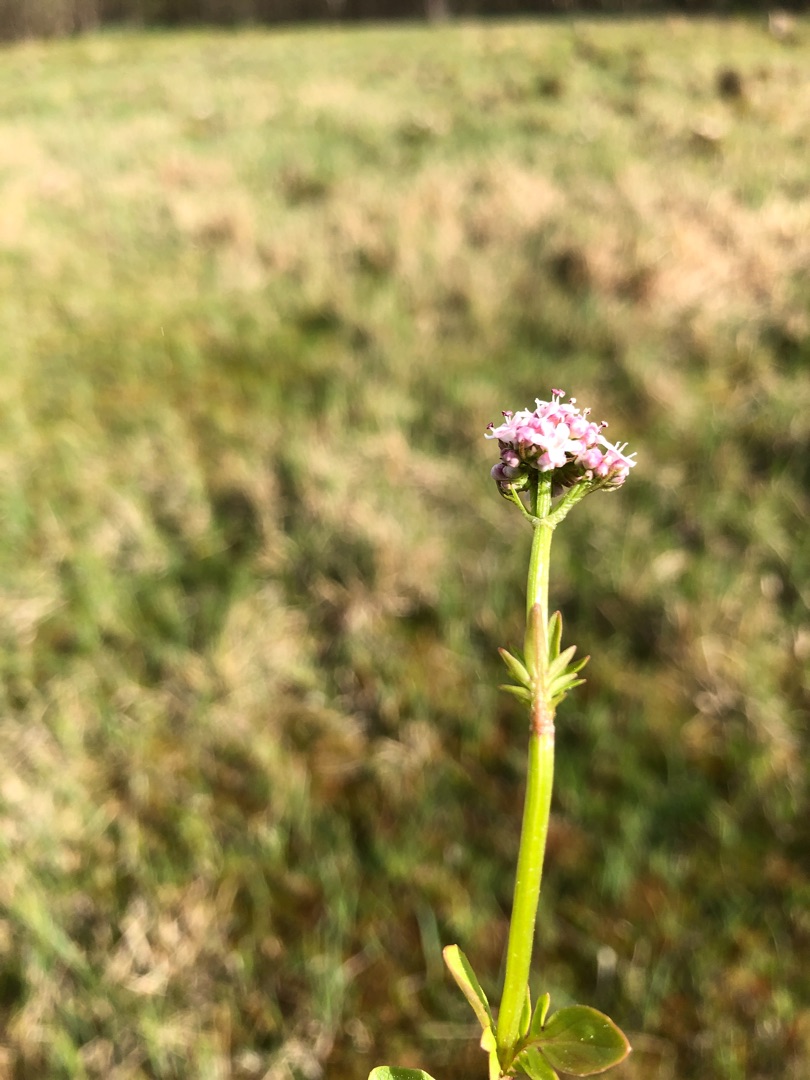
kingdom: Plantae
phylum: Tracheophyta
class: Magnoliopsida
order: Dipsacales
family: Caprifoliaceae
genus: Valeriana
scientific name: Valeriana dioica
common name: Tvebo baldrian
